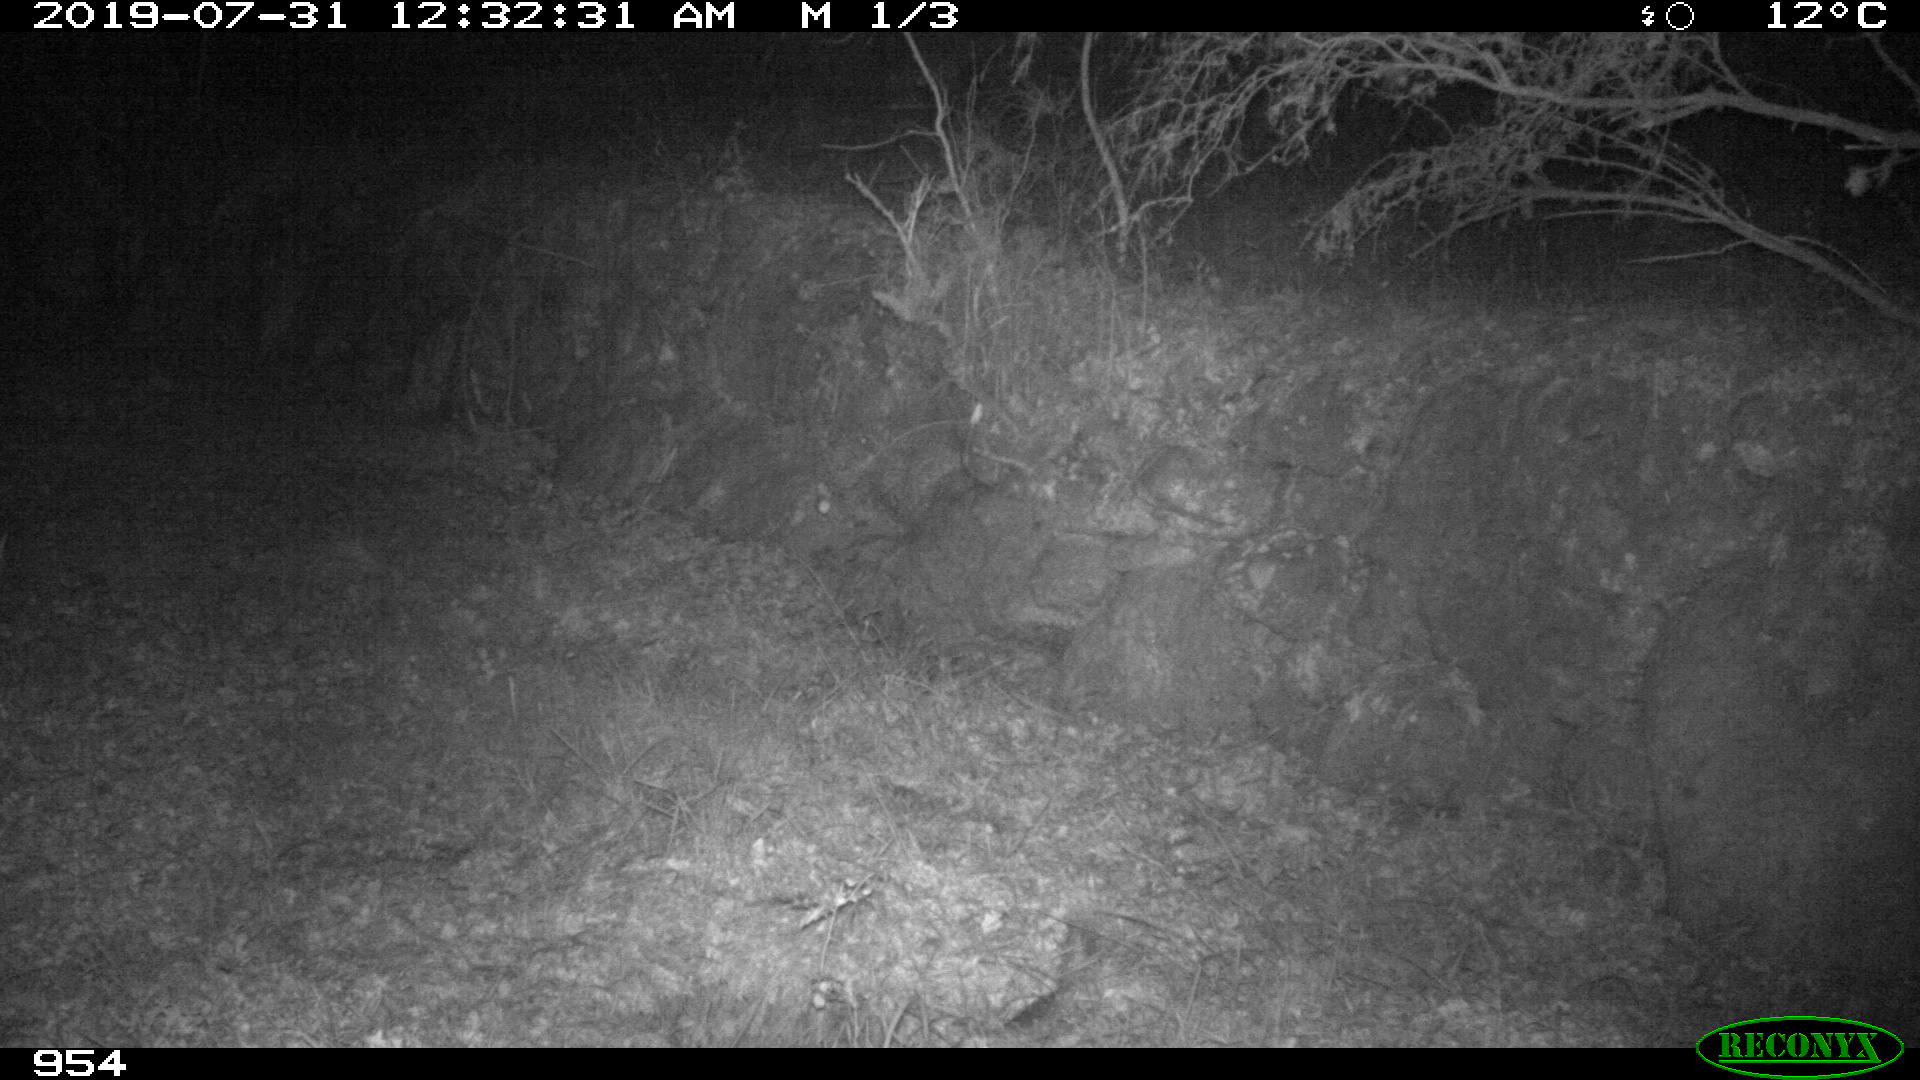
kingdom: Animalia
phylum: Chordata
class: Mammalia
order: Artiodactyla
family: Cervidae
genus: Capreolus
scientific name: Capreolus capreolus
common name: Western roe deer
